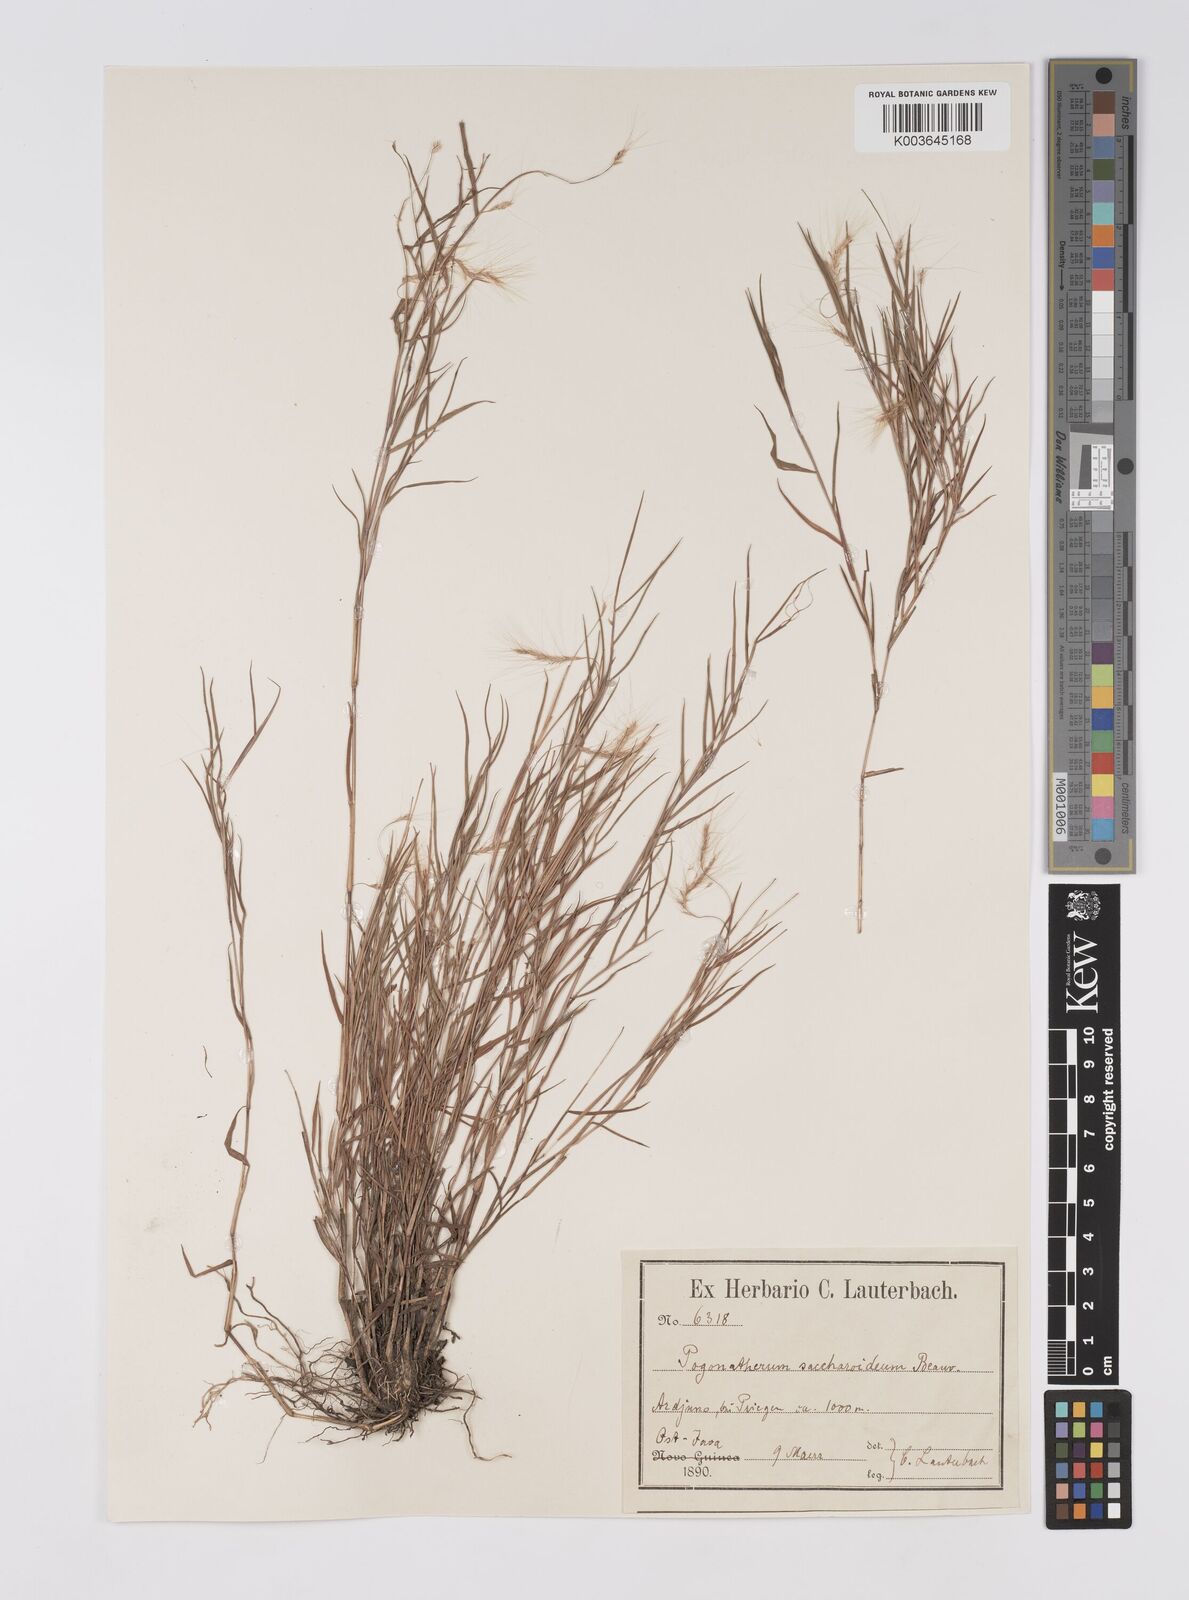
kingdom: Plantae
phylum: Tracheophyta
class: Liliopsida
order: Poales
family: Poaceae
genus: Pogonatherum
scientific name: Pogonatherum crinitum
